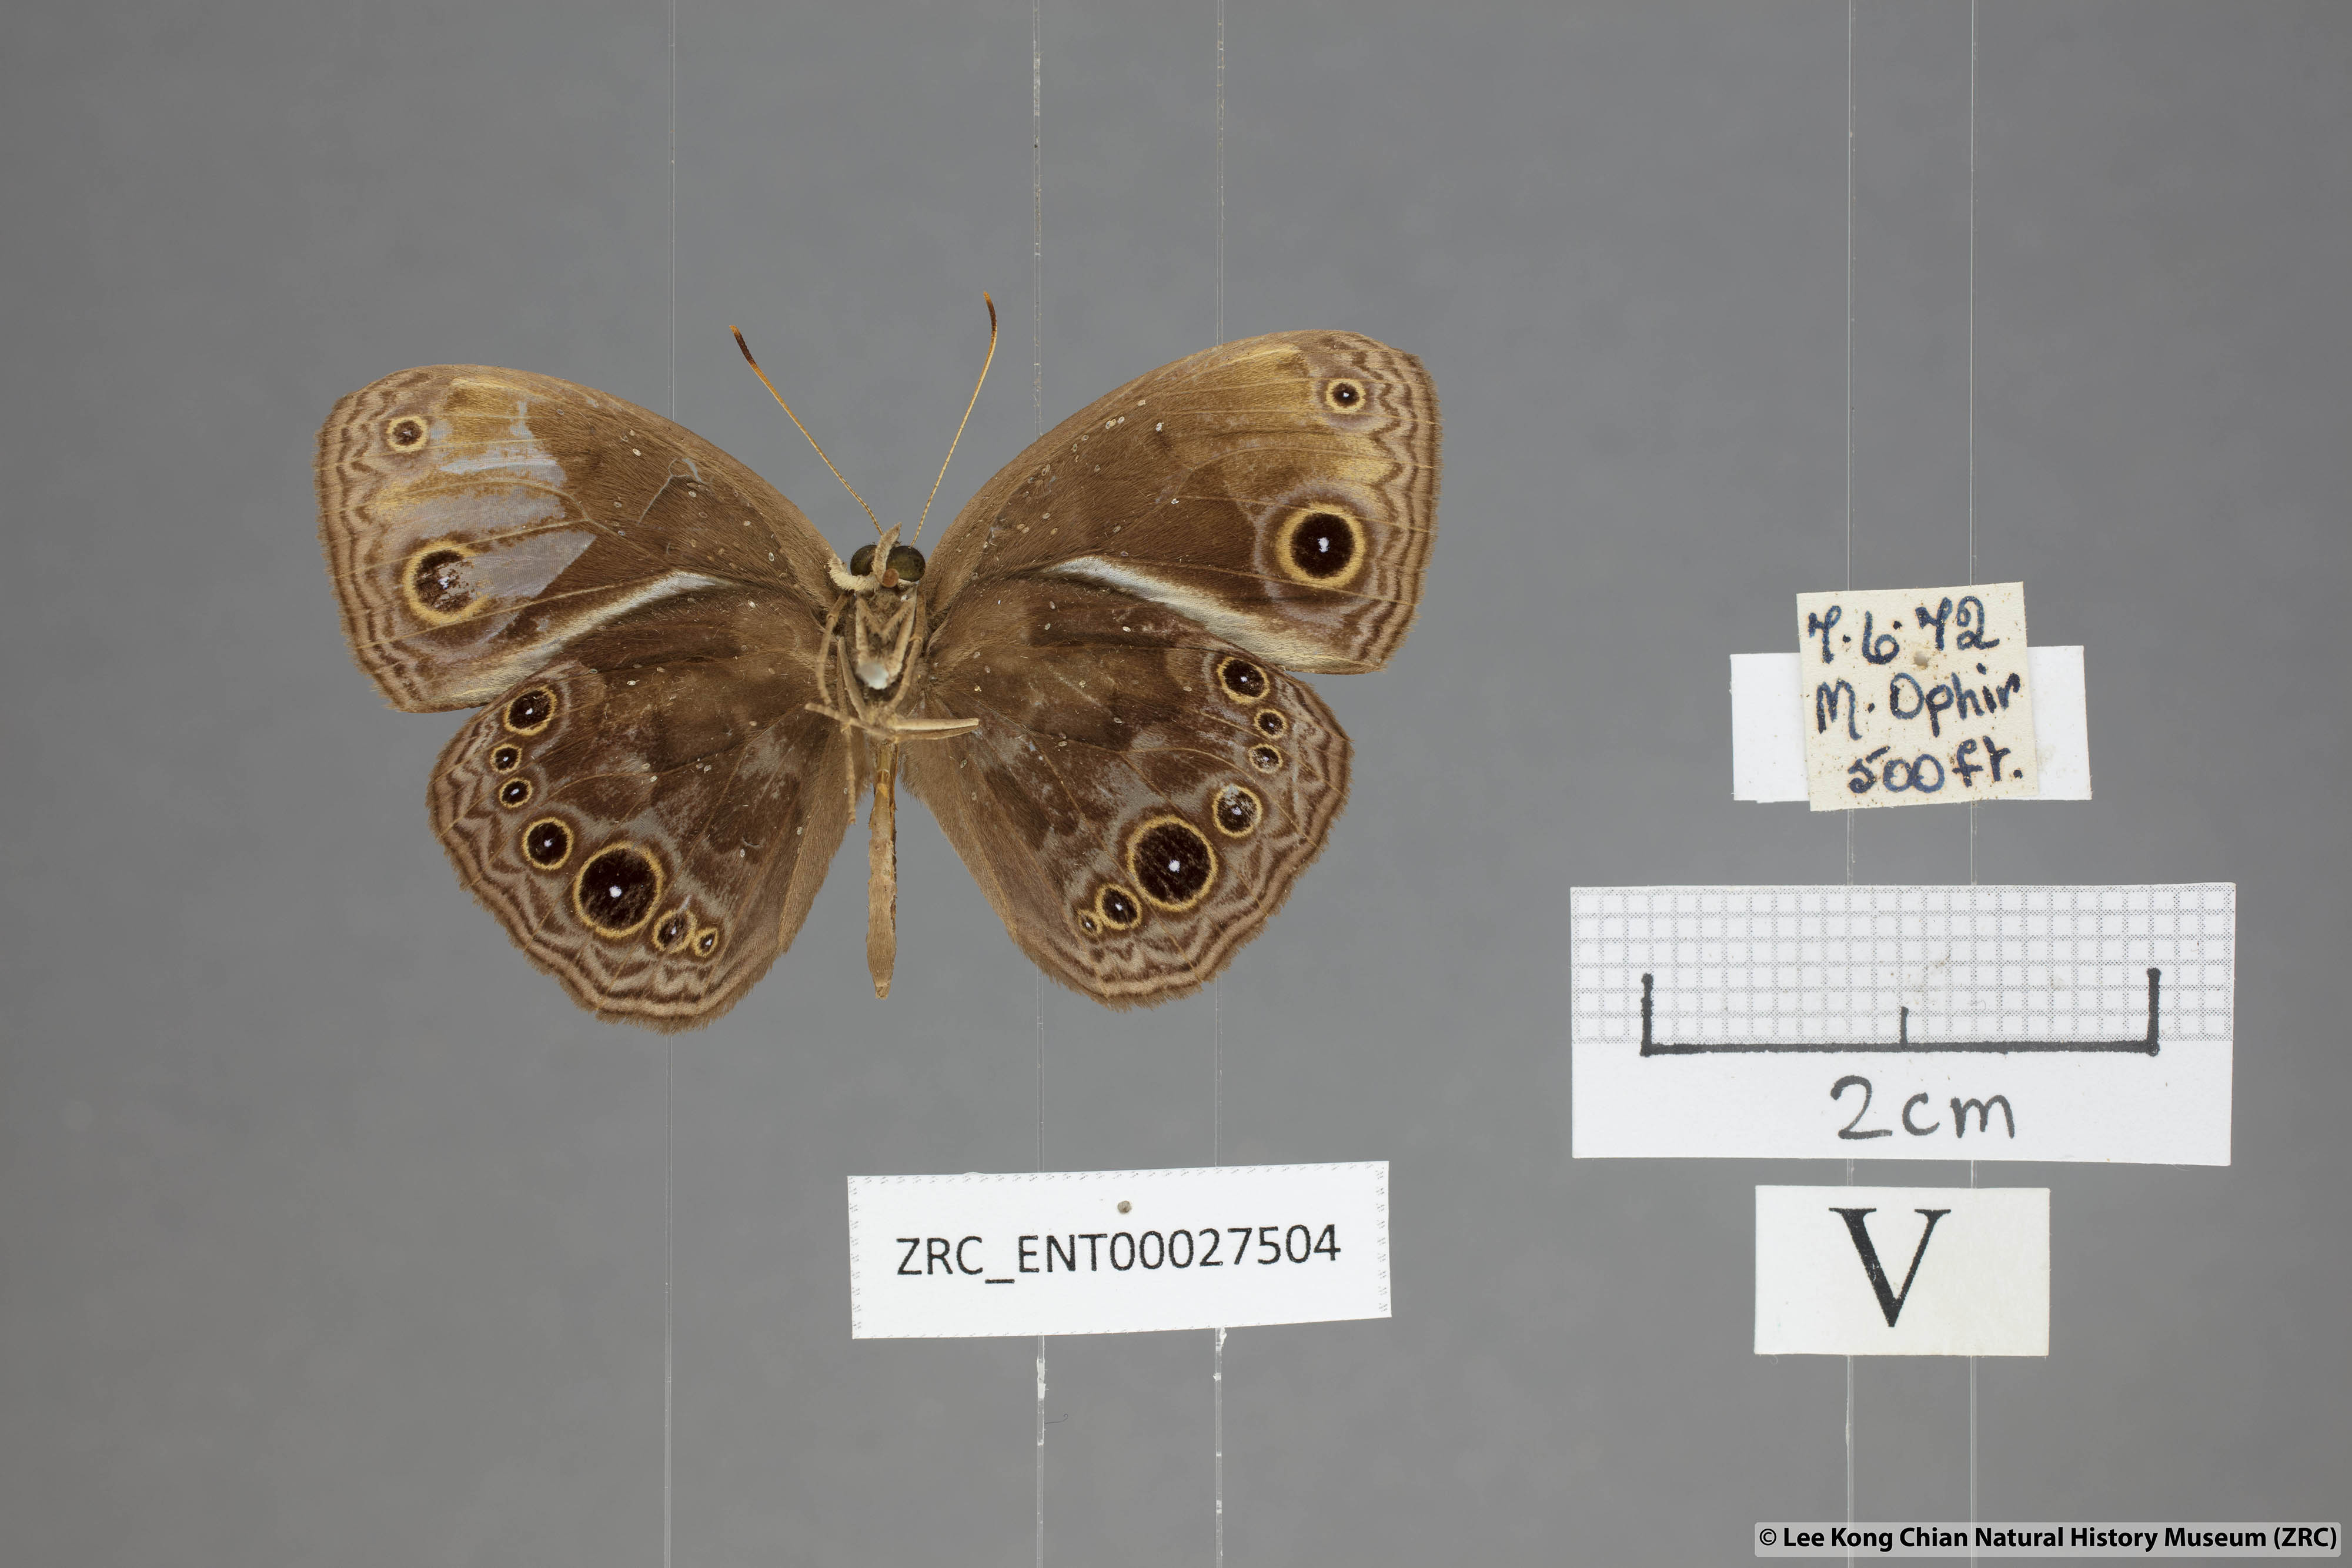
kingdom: Animalia
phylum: Arthropoda
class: Insecta
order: Lepidoptera
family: Nymphalidae
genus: Mycalesis
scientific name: Mycalesis maianeas
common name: Bandless bushbrown
